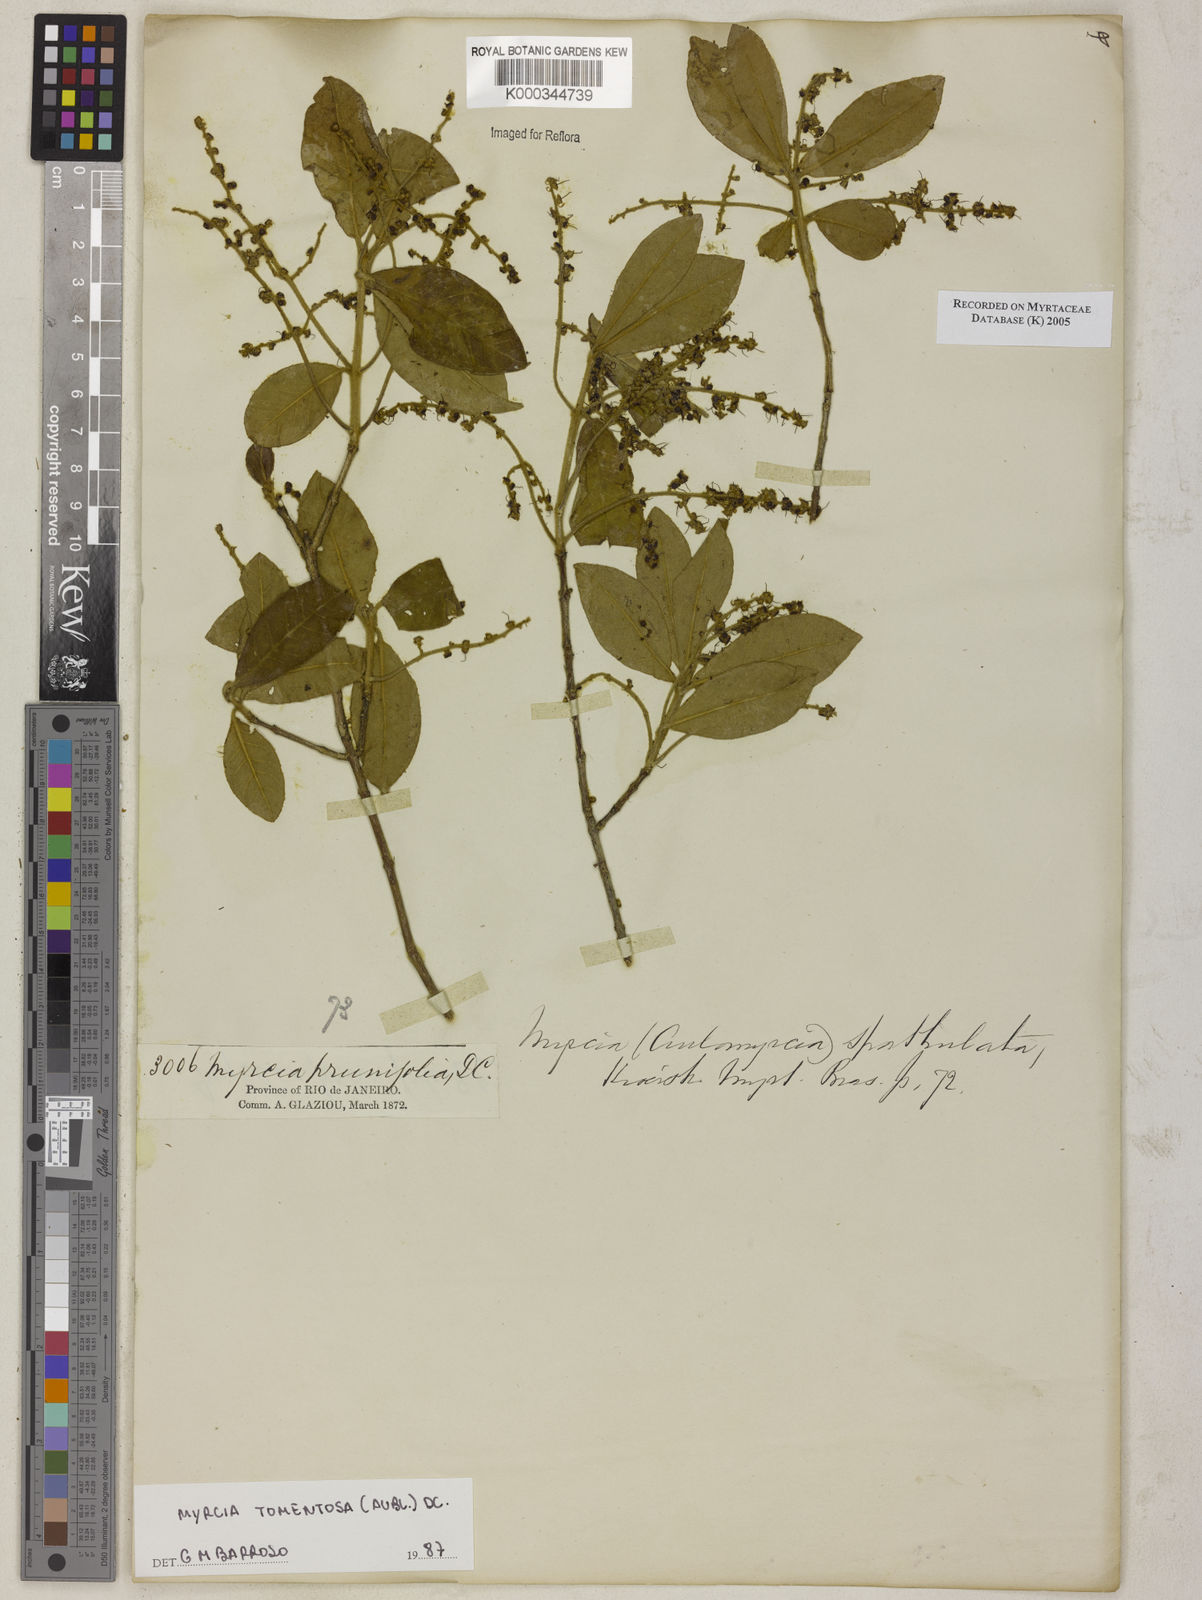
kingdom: Plantae
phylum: Tracheophyta
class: Magnoliopsida
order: Myrtales
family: Myrtaceae
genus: Myrcia
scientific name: Myrcia tomentosa
